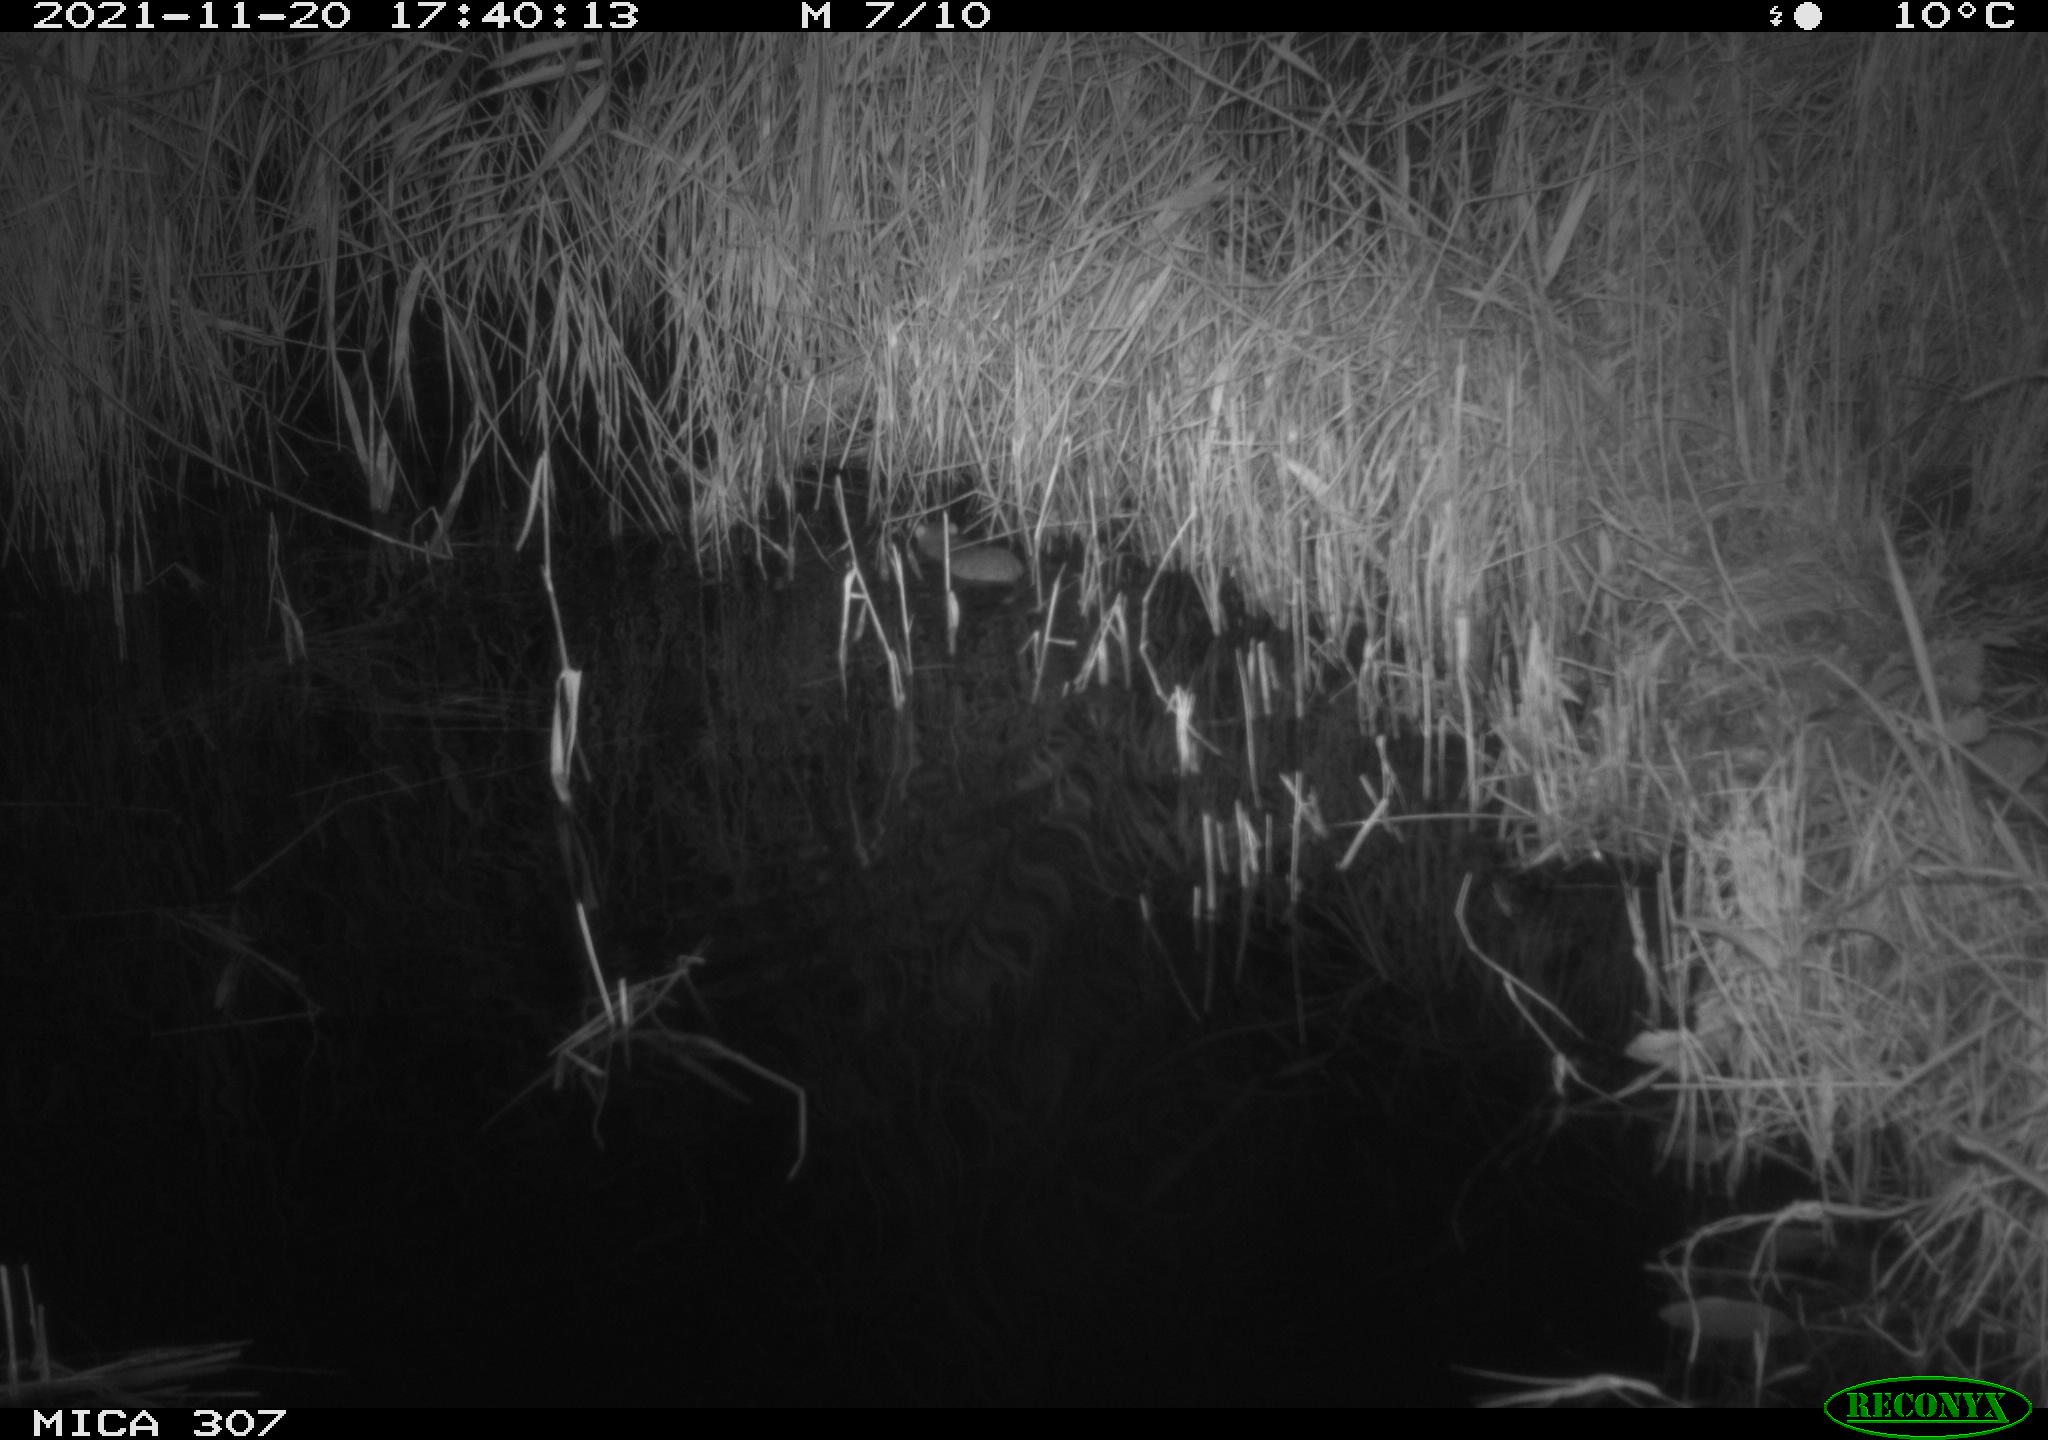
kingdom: Animalia
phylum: Chordata
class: Mammalia
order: Rodentia
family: Muridae
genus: Rattus
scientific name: Rattus norvegicus
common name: Brown rat
